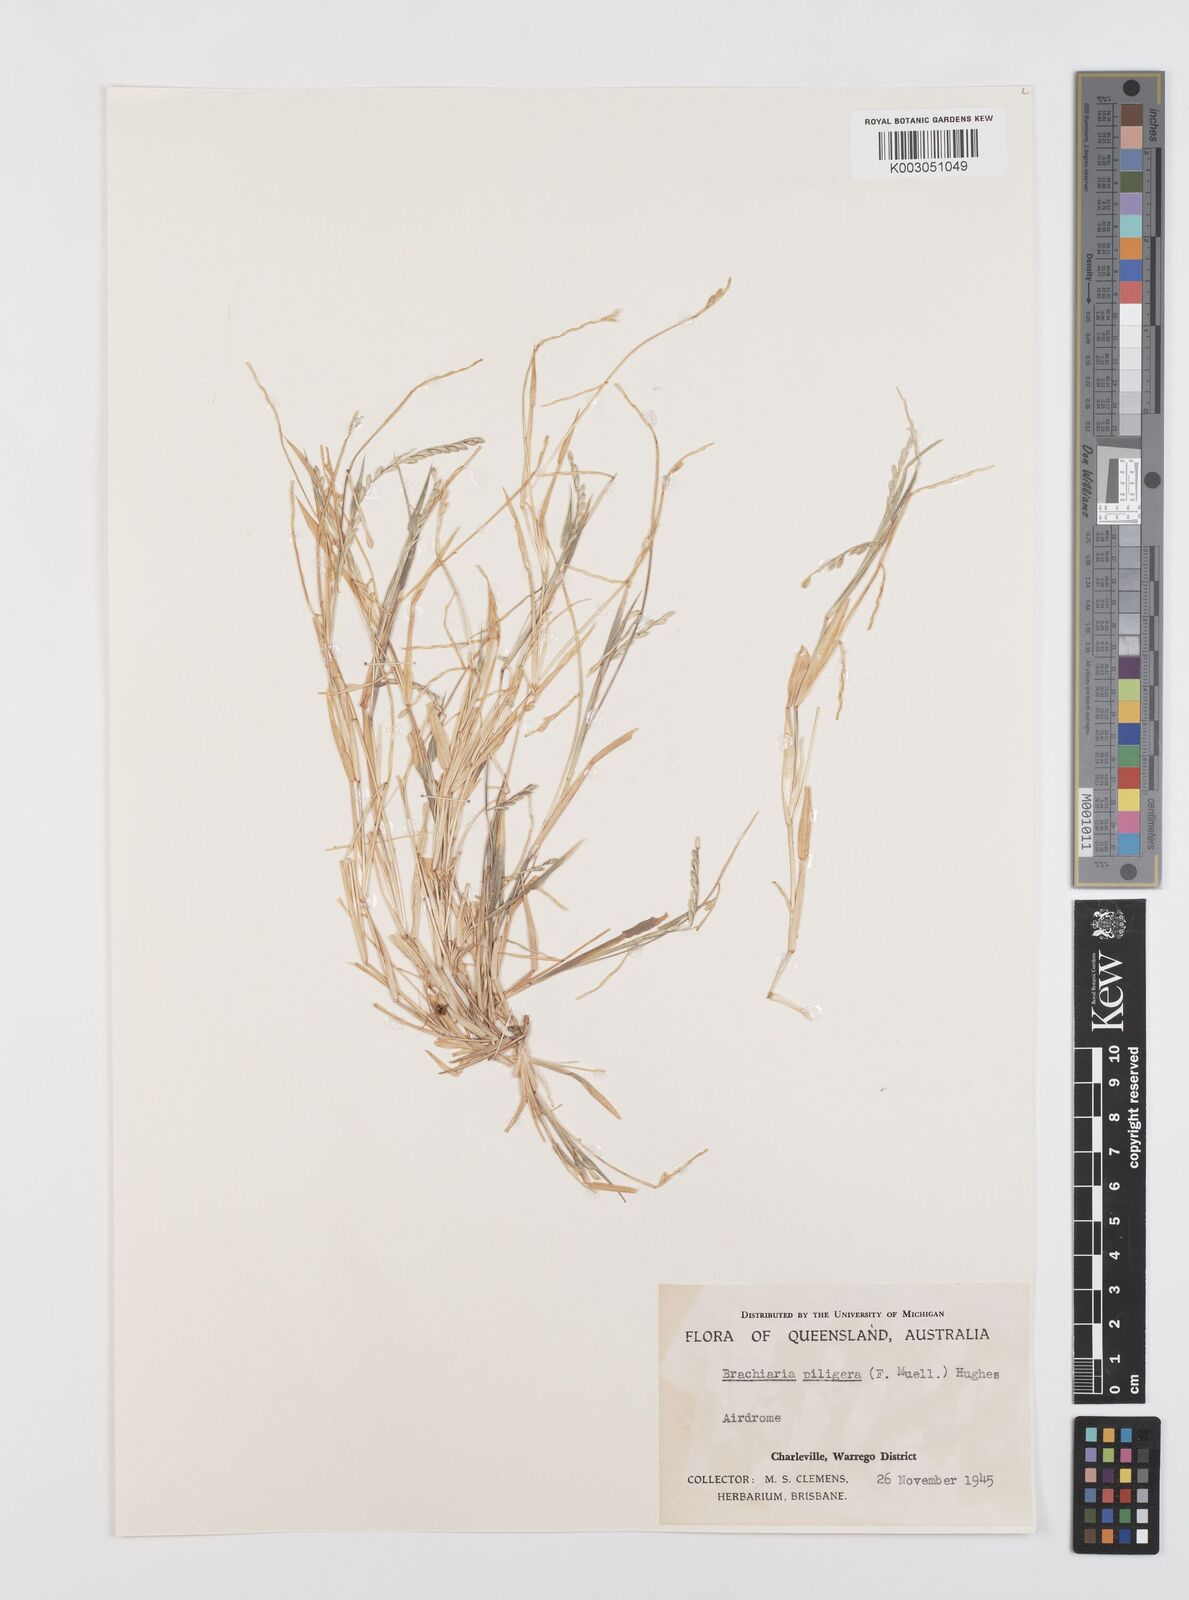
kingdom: Plantae
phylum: Tracheophyta
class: Liliopsida
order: Poales
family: Poaceae
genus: Urochloa
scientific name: Urochloa piligera
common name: Wattle signalgrass
